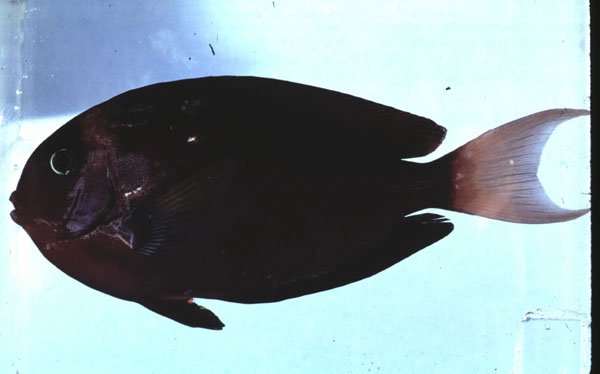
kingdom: Animalia
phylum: Chordata
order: Perciformes
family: Acanthuridae
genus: Acanthurus
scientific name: Acanthurus thompsoni
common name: Chocolate surgeonfish
